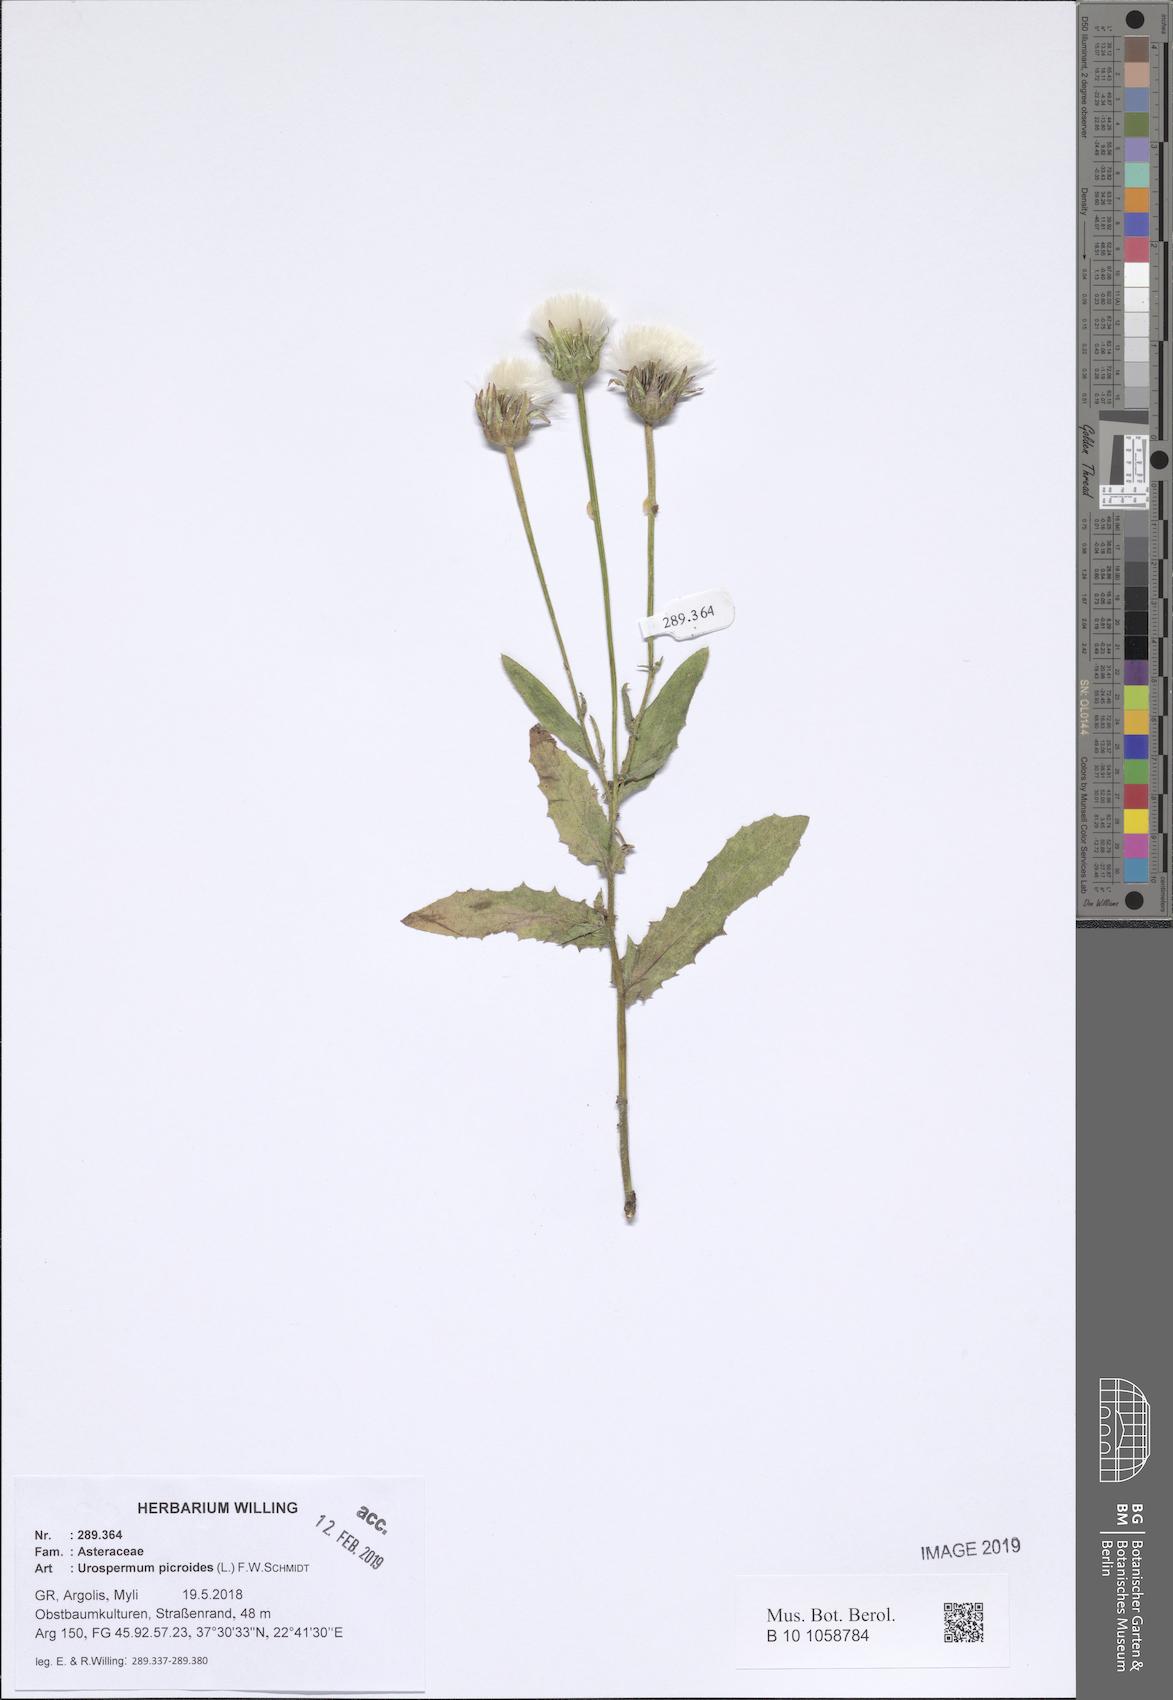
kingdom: Plantae
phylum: Tracheophyta
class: Magnoliopsida
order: Asterales
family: Asteraceae
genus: Urospermum
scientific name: Urospermum picroides
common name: False hawkbit
